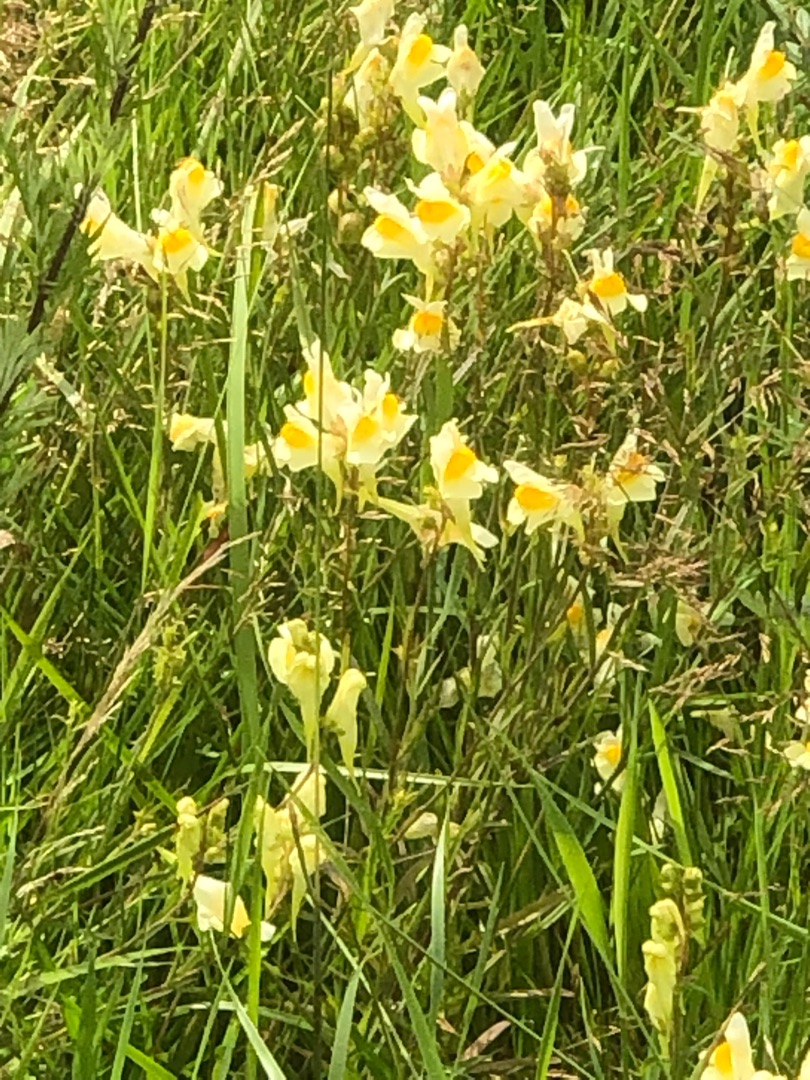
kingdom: Plantae
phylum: Tracheophyta
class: Magnoliopsida
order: Lamiales
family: Plantaginaceae
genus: Linaria
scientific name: Linaria vulgaris
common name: Almindelig torskemund
